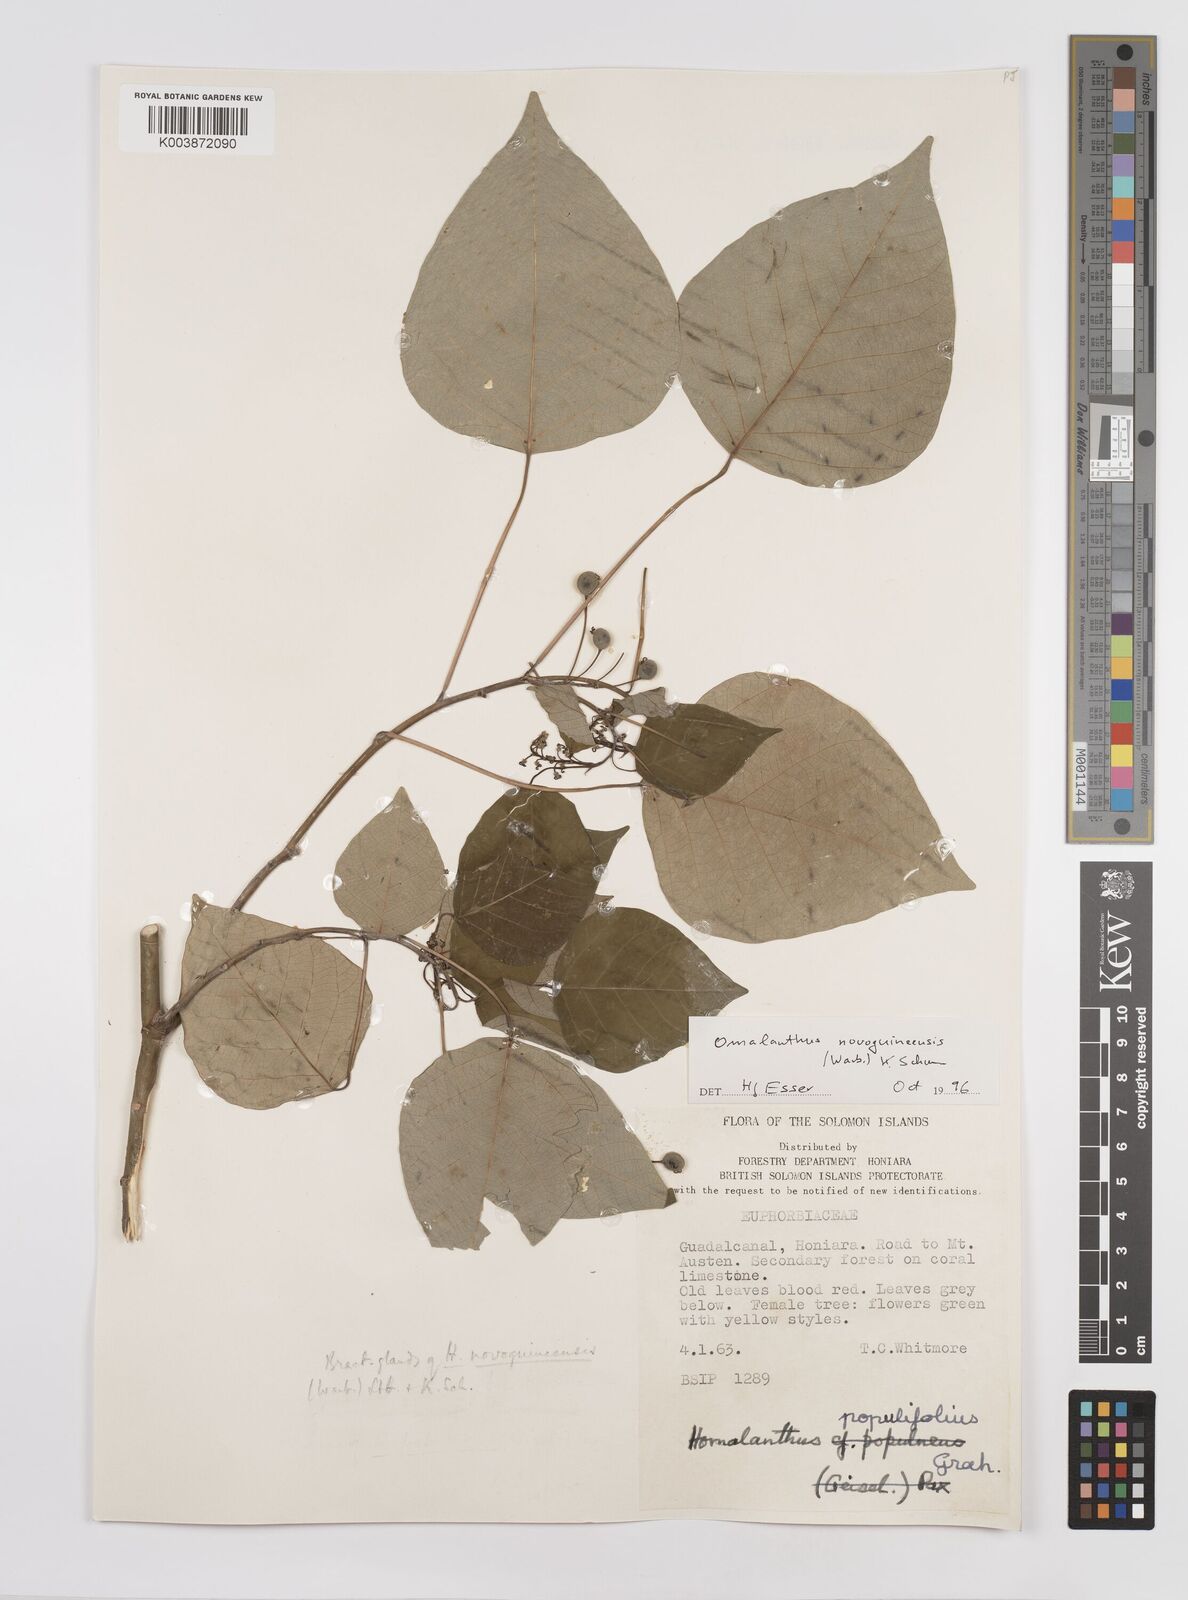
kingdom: Plantae
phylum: Tracheophyta
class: Magnoliopsida
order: Malpighiales
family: Euphorbiaceae
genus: Homalanthus
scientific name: Homalanthus novoguineensis
